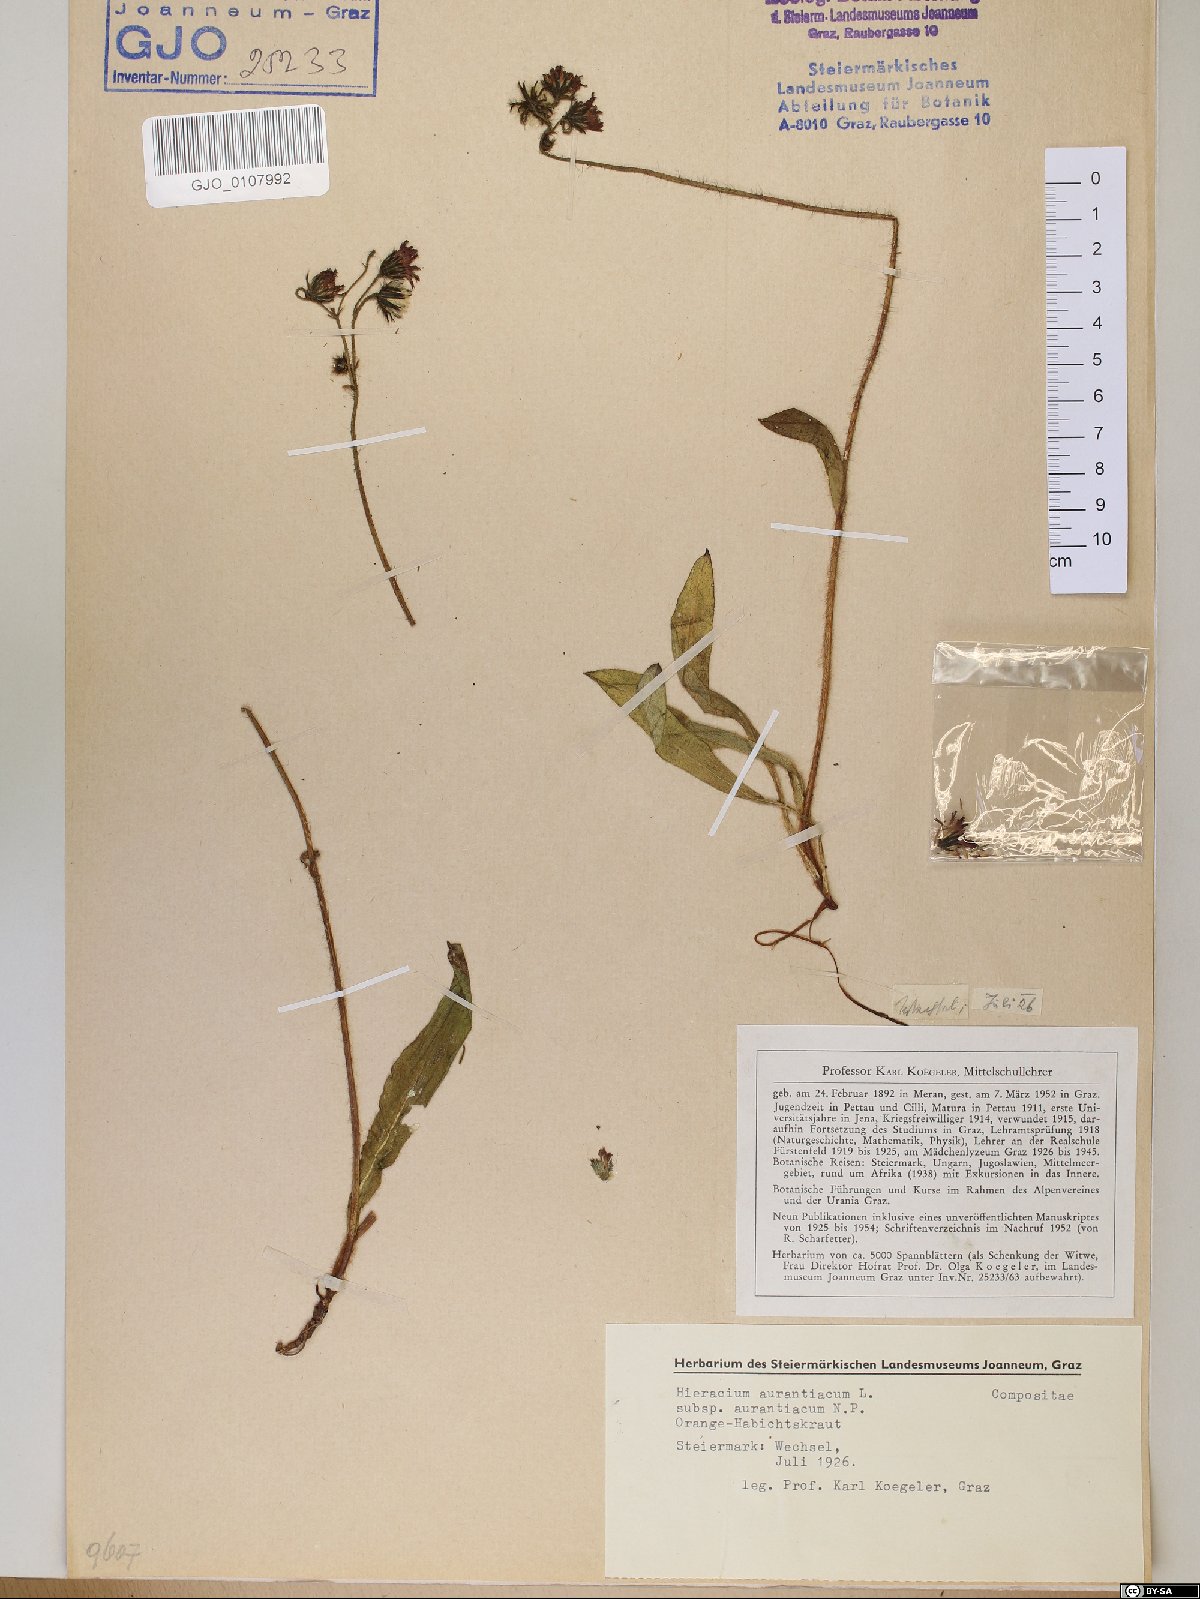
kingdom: Plantae
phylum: Tracheophyta
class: Magnoliopsida
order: Asterales
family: Asteraceae
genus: Pilosella
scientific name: Pilosella aurantiaca
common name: Fox-and-cubs
